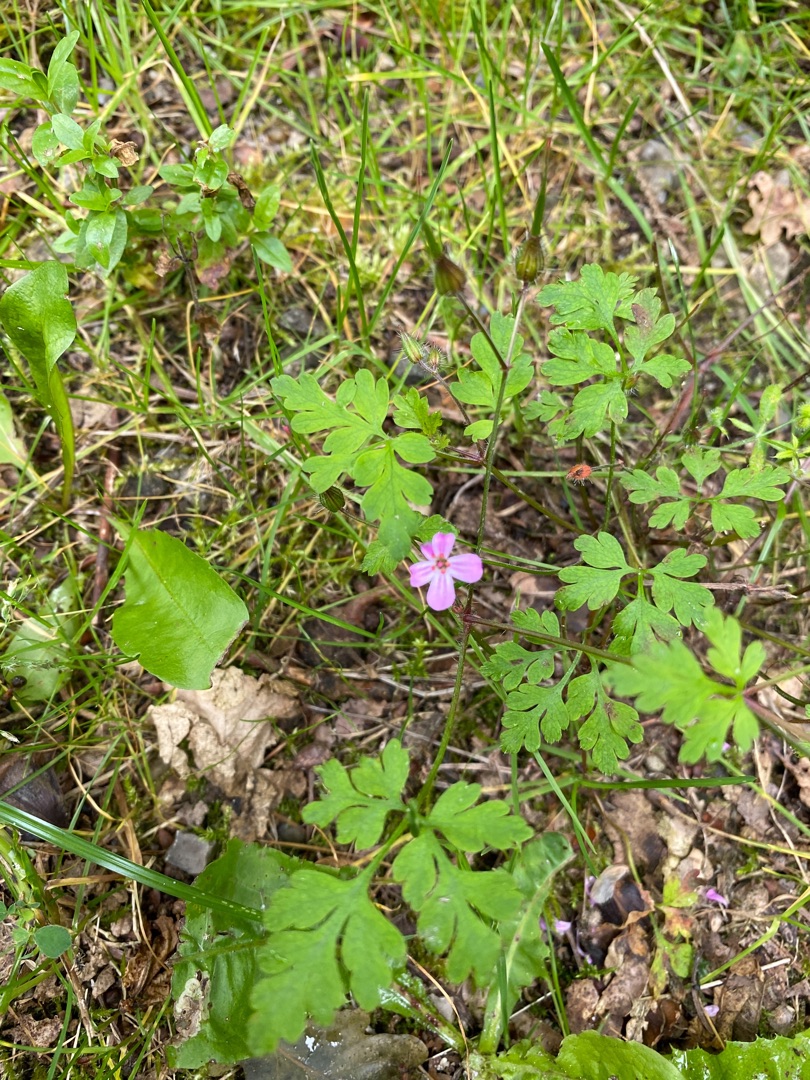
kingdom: Plantae
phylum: Tracheophyta
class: Magnoliopsida
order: Geraniales
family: Geraniaceae
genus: Geranium
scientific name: Geranium robertianum
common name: Stinkende storkenæb
